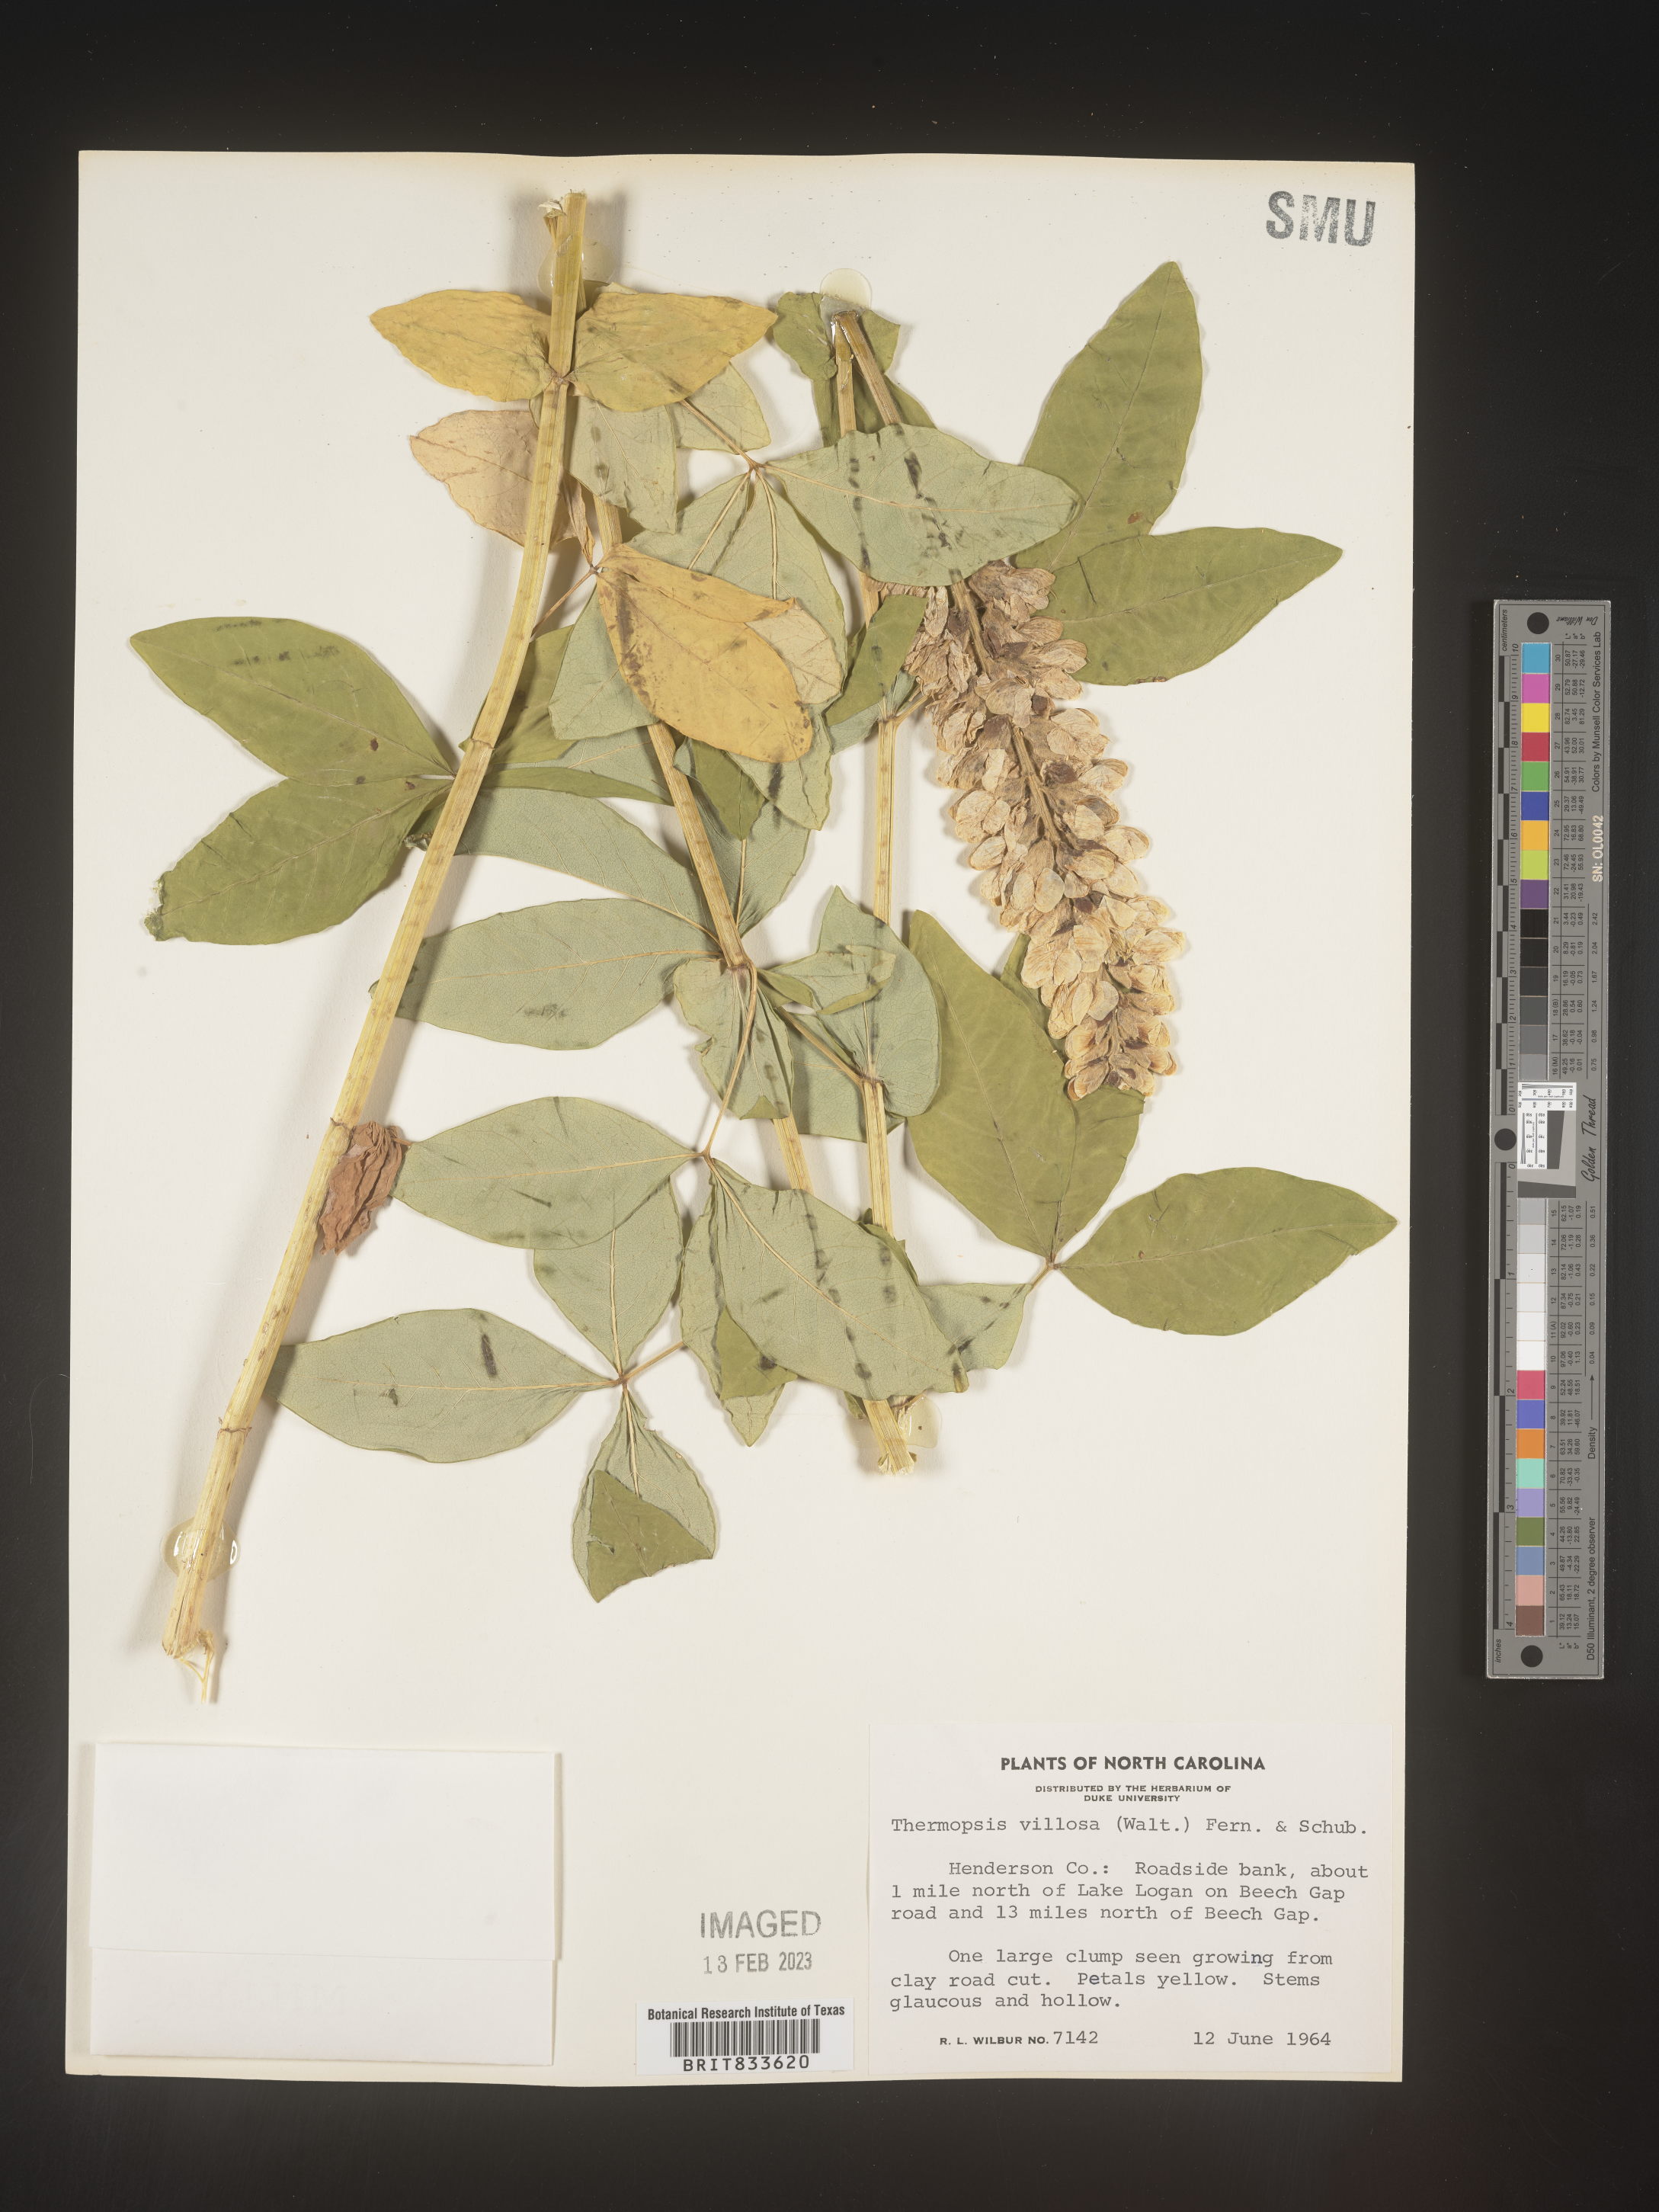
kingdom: Plantae
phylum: Tracheophyta
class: Magnoliopsida
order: Fabales
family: Fabaceae
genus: Thermopsis
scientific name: Thermopsis villosa
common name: Carolina-lupin
